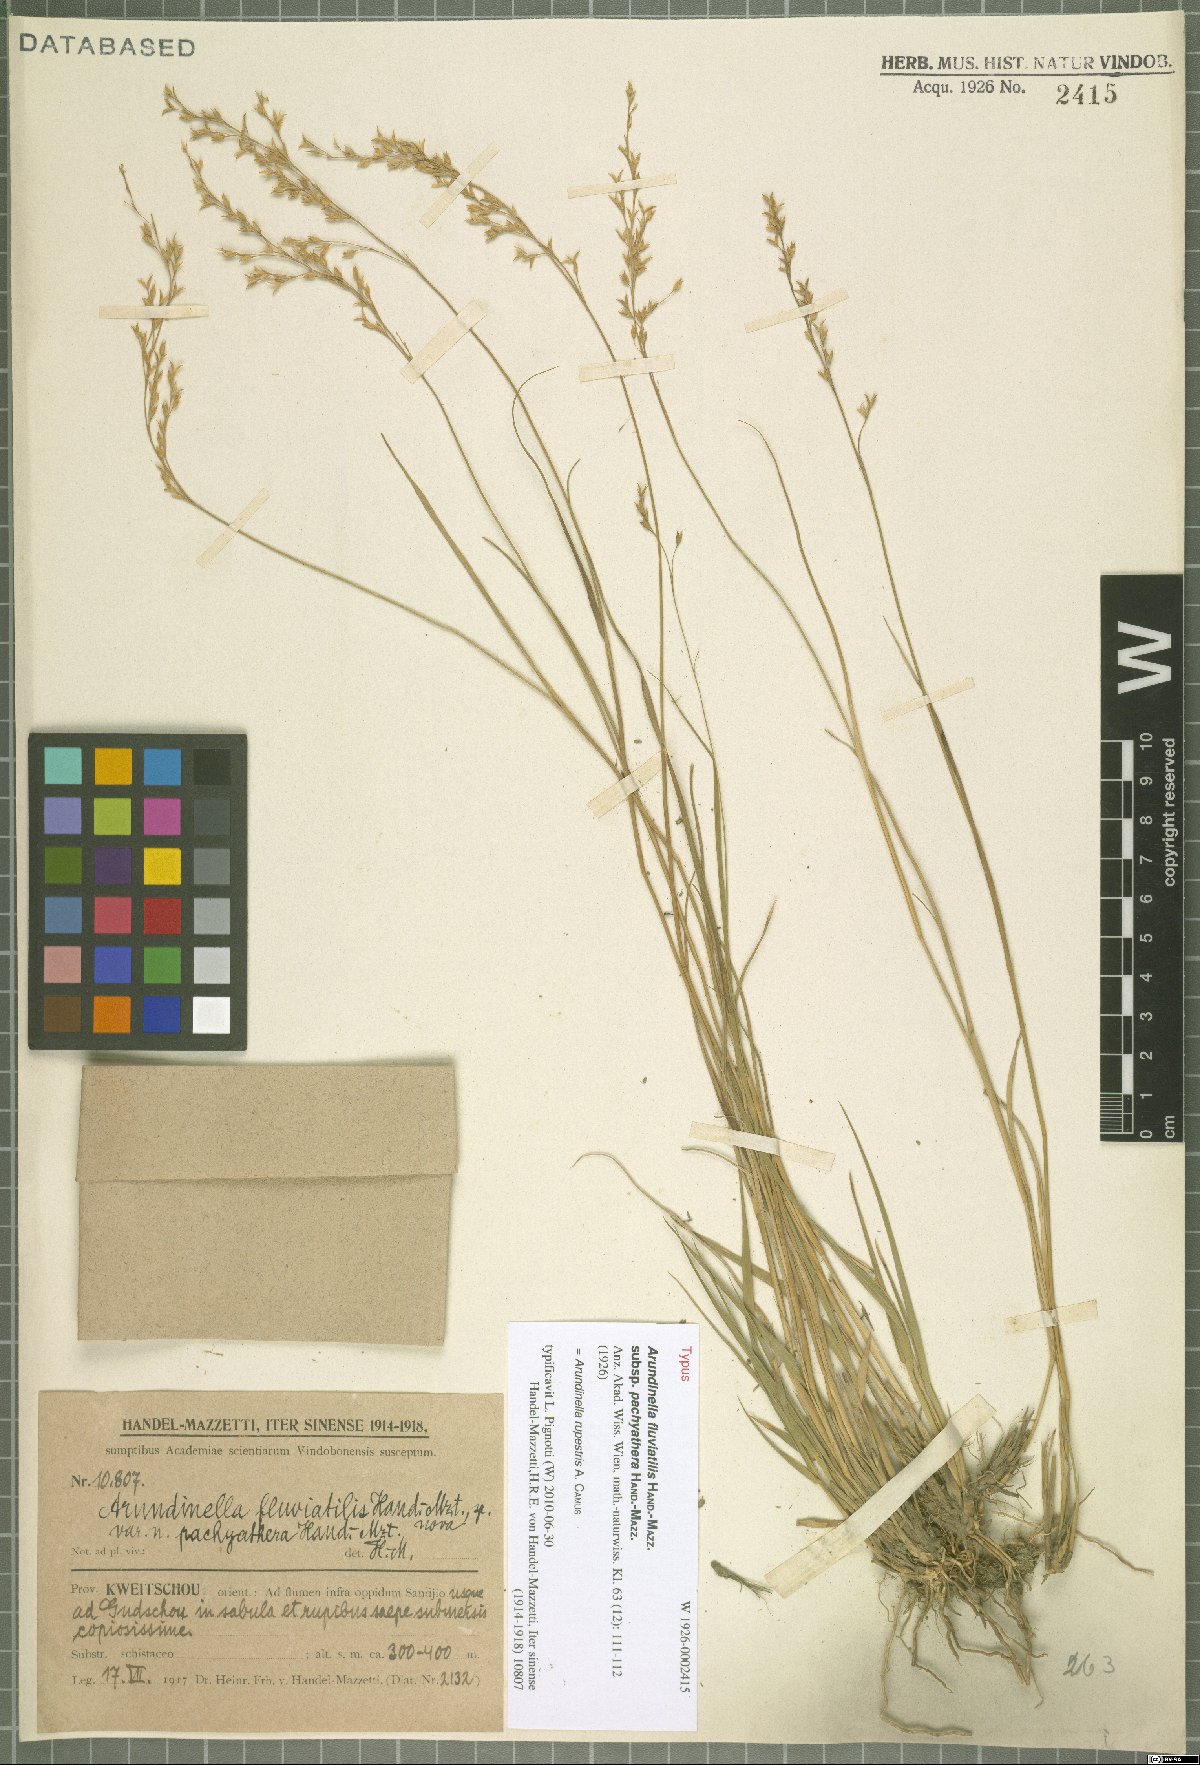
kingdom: Plantae
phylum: Tracheophyta
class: Liliopsida
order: Poales
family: Poaceae
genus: Arundinella
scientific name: Arundinella rupestris
